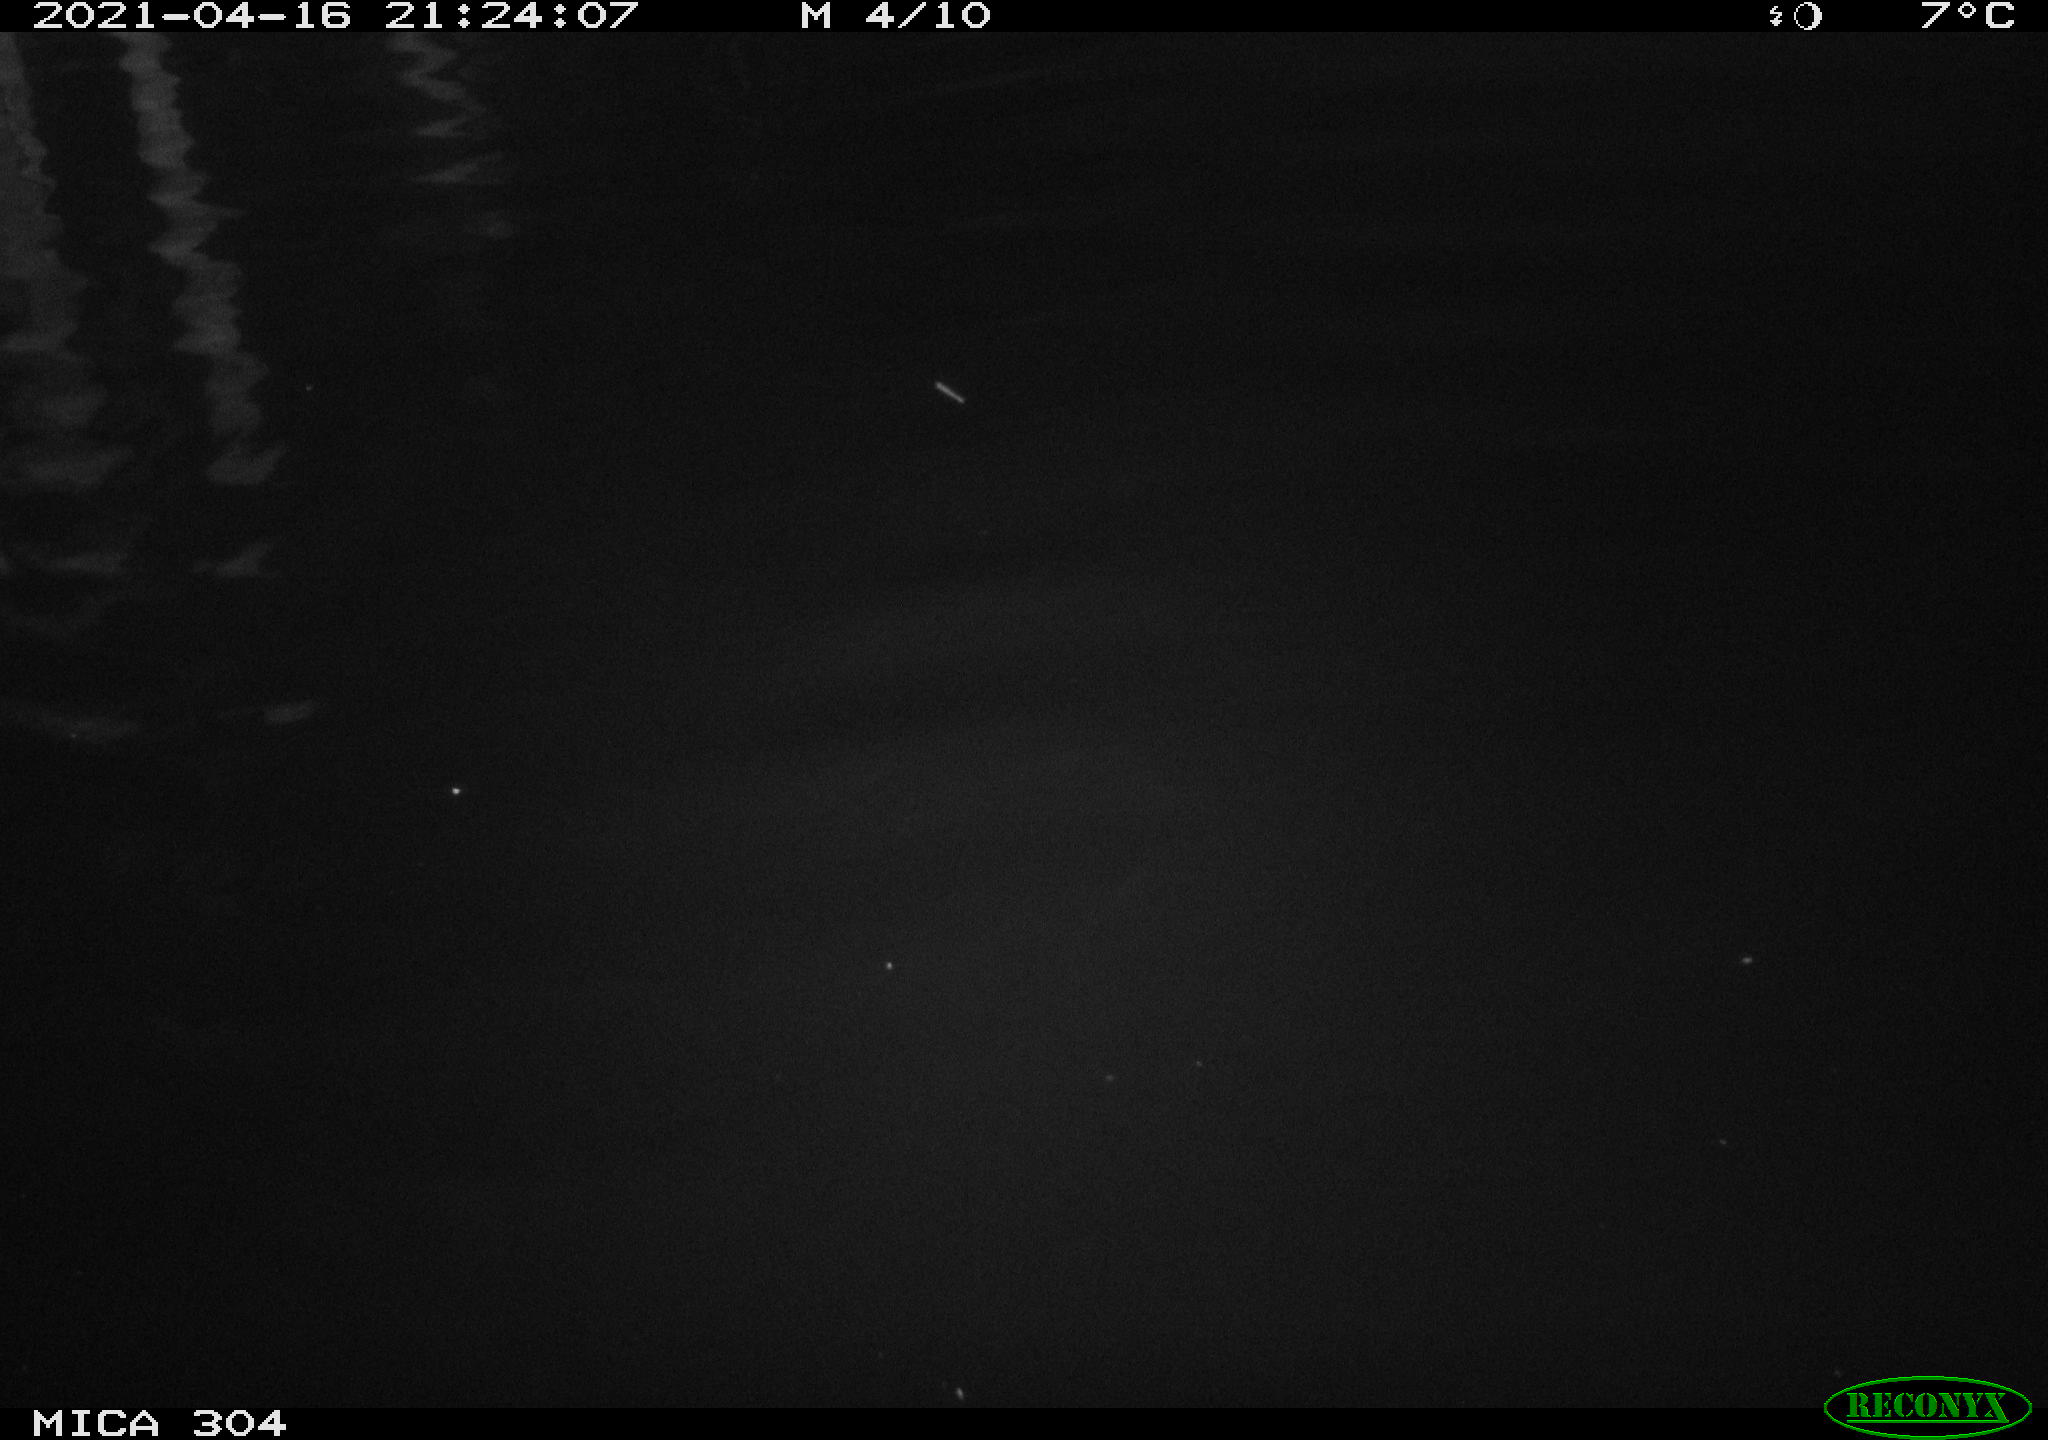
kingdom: Animalia
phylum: Chordata
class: Aves
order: Anseriformes
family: Anatidae
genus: Anas
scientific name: Anas
